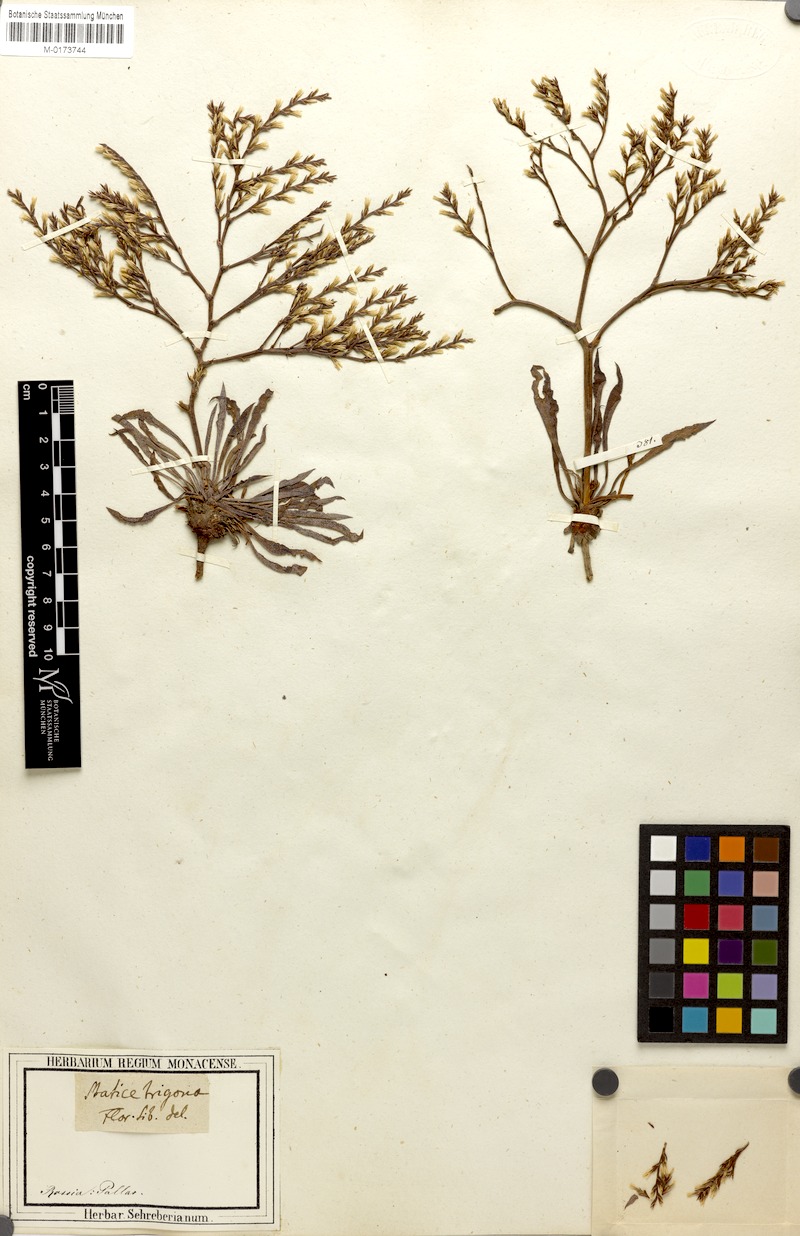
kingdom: Plantae
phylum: Tracheophyta
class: Magnoliopsida
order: Caryophyllales
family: Plumbaginaceae
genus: Goniolimon
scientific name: Goniolimon tataricum
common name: Statice
